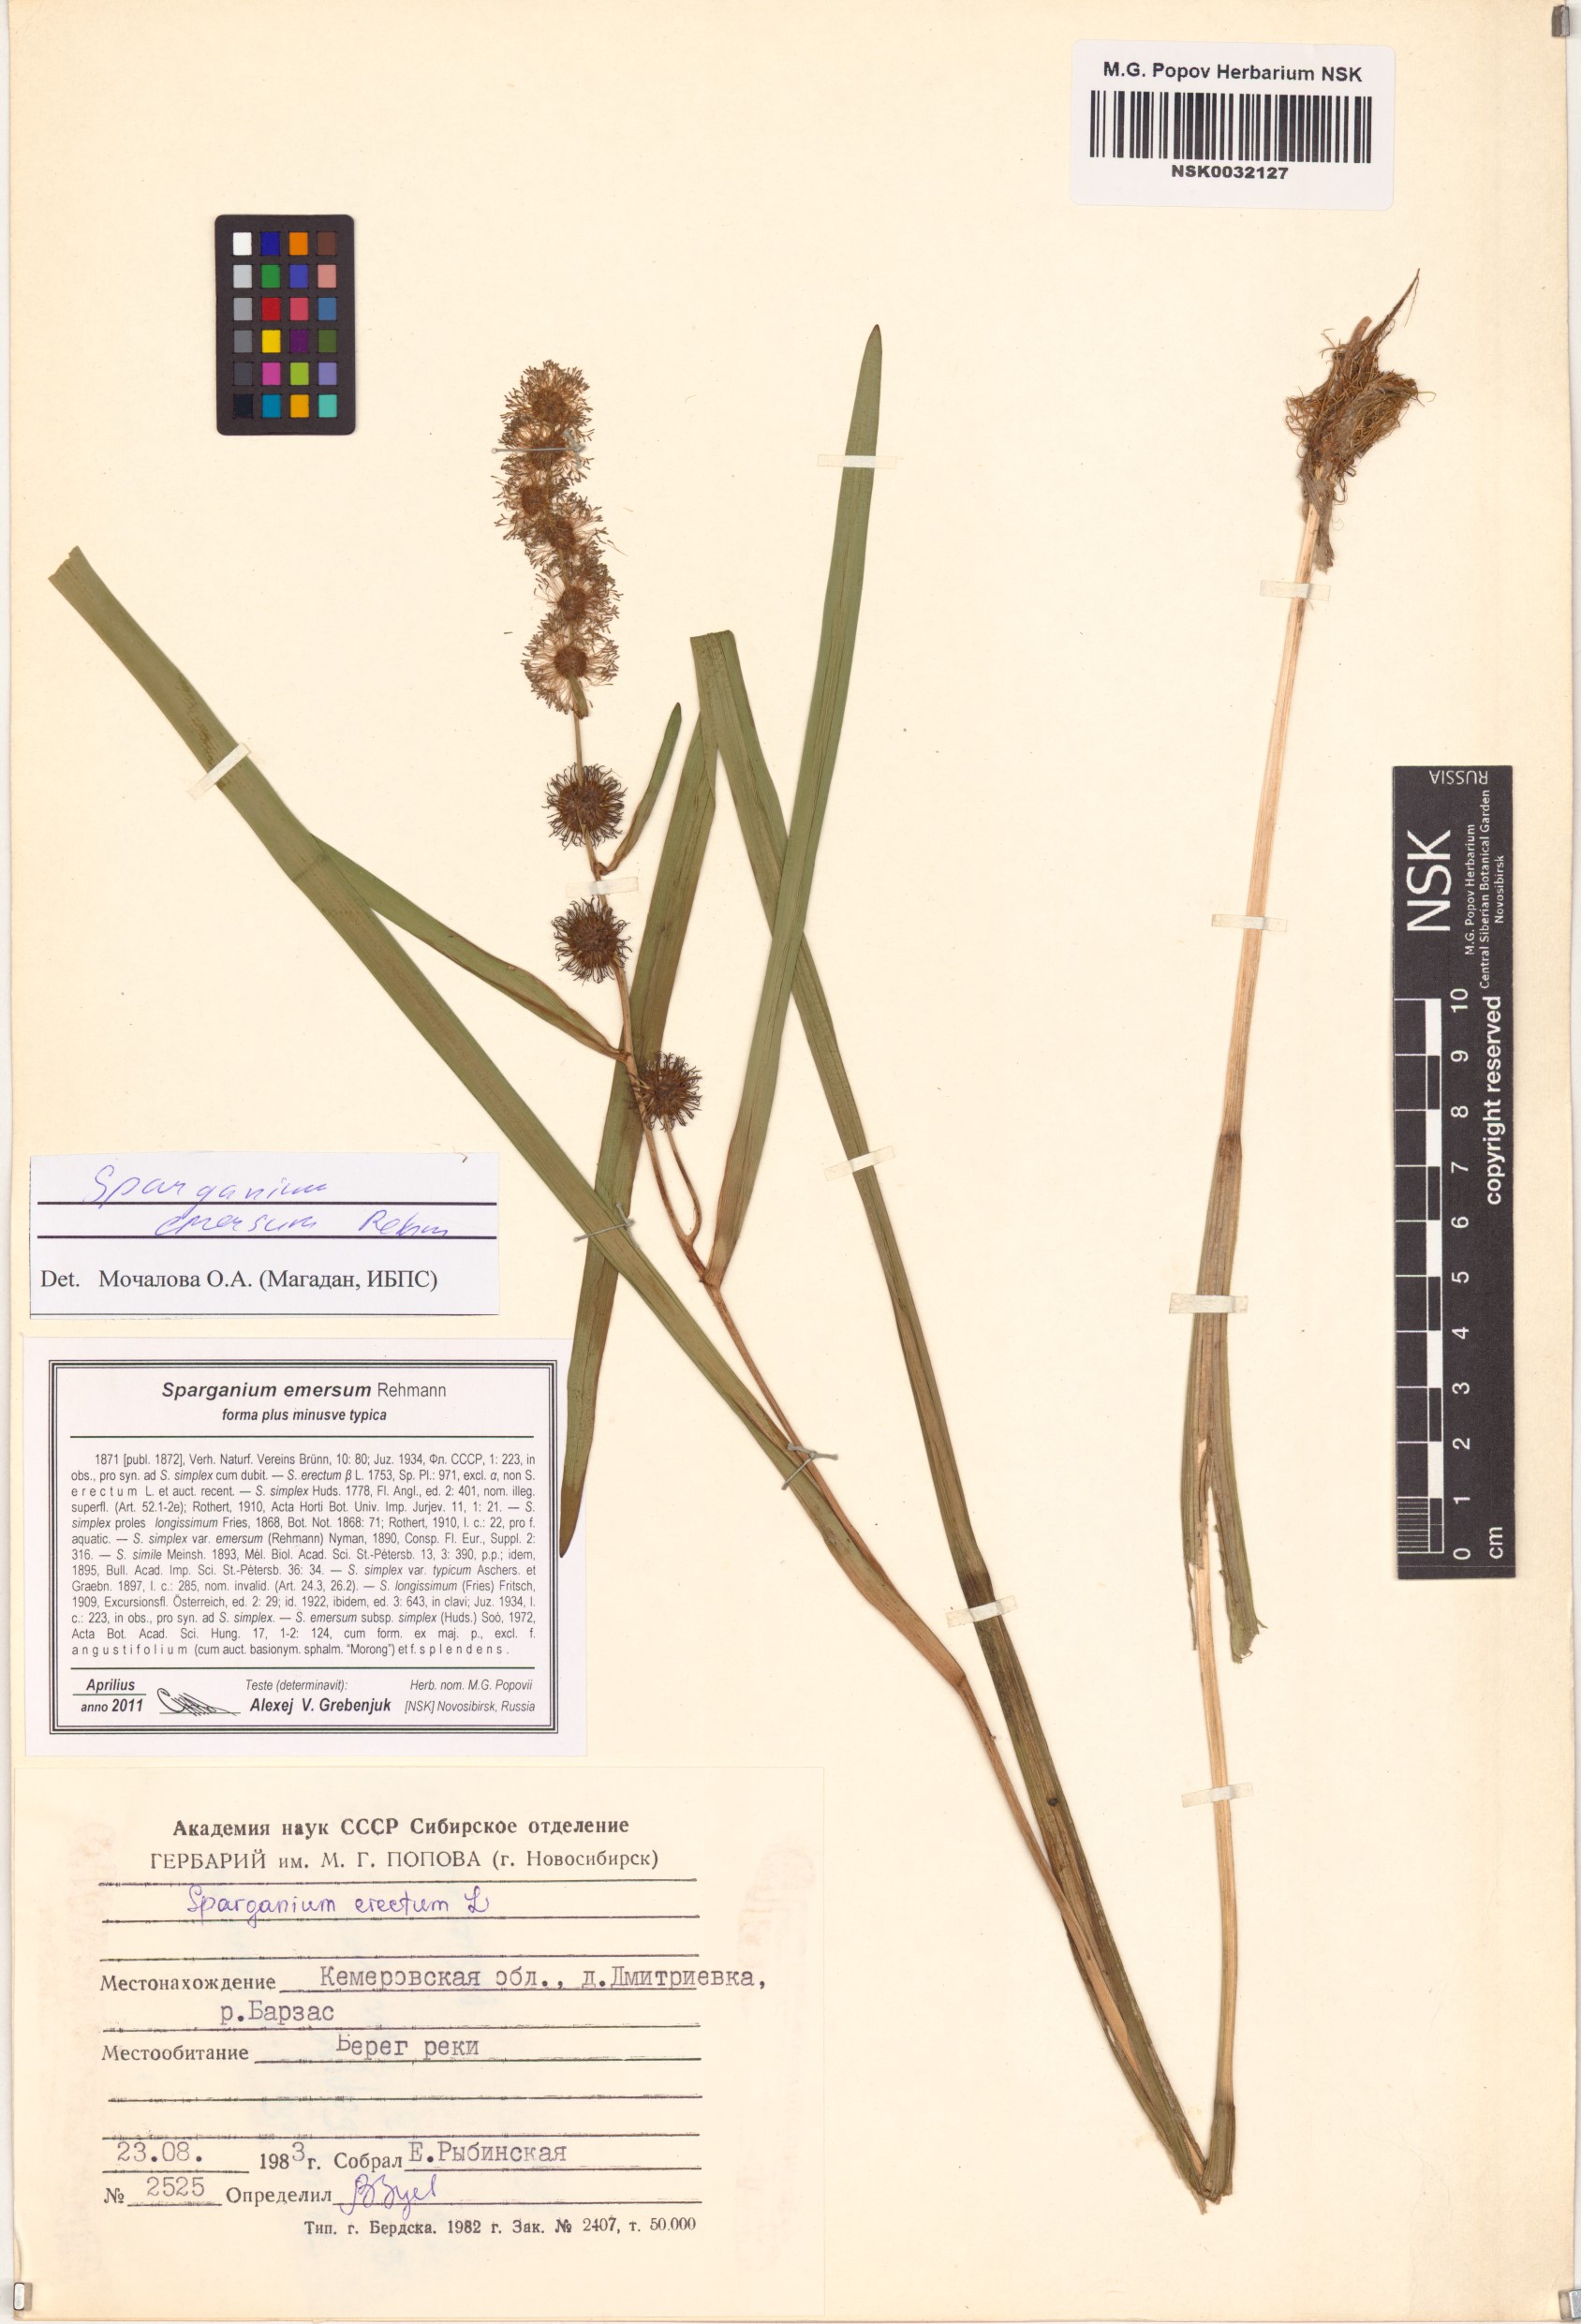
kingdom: Plantae
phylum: Tracheophyta
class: Liliopsida
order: Poales
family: Typhaceae
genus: Sparganium
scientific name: Sparganium emersum
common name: Unbranched bur-reed
